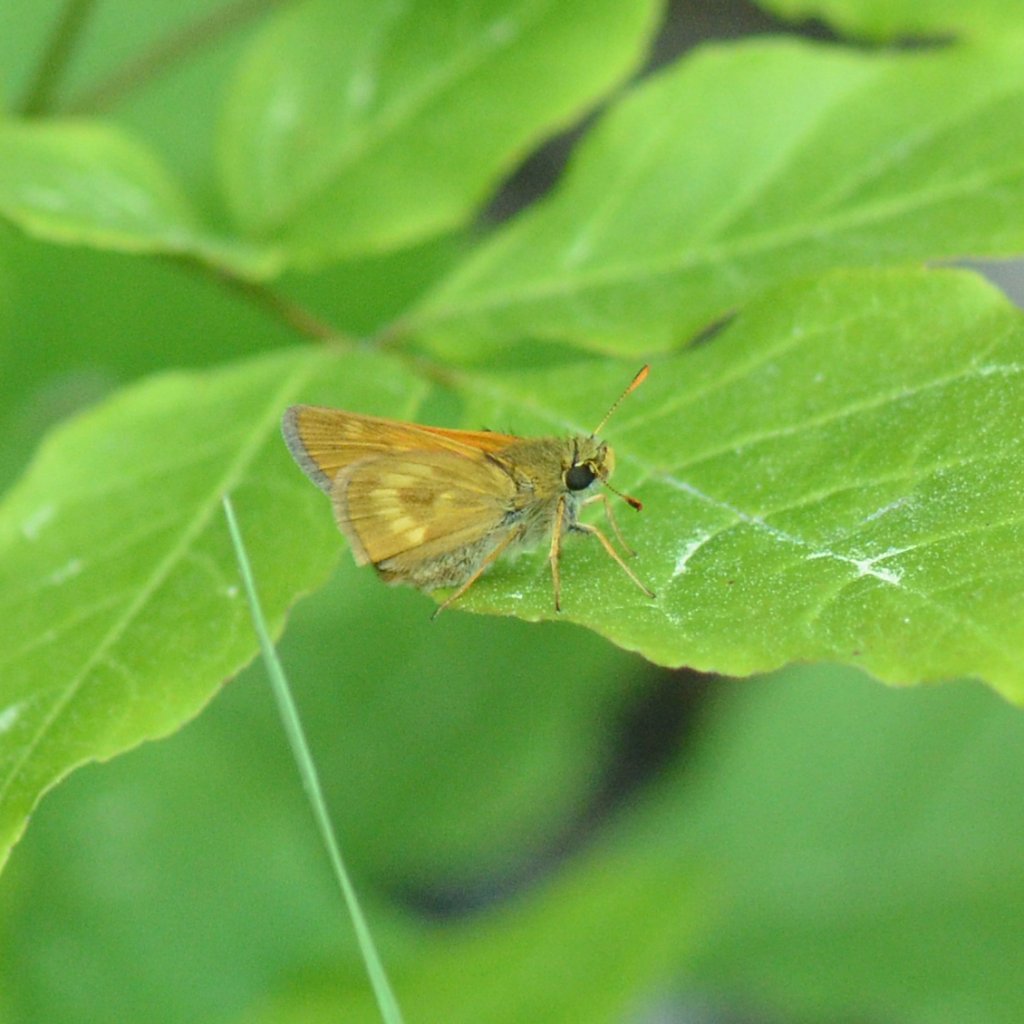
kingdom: Animalia
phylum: Arthropoda
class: Insecta
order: Lepidoptera
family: Hesperiidae
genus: Polites
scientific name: Polites
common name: Long Dash Skipper
